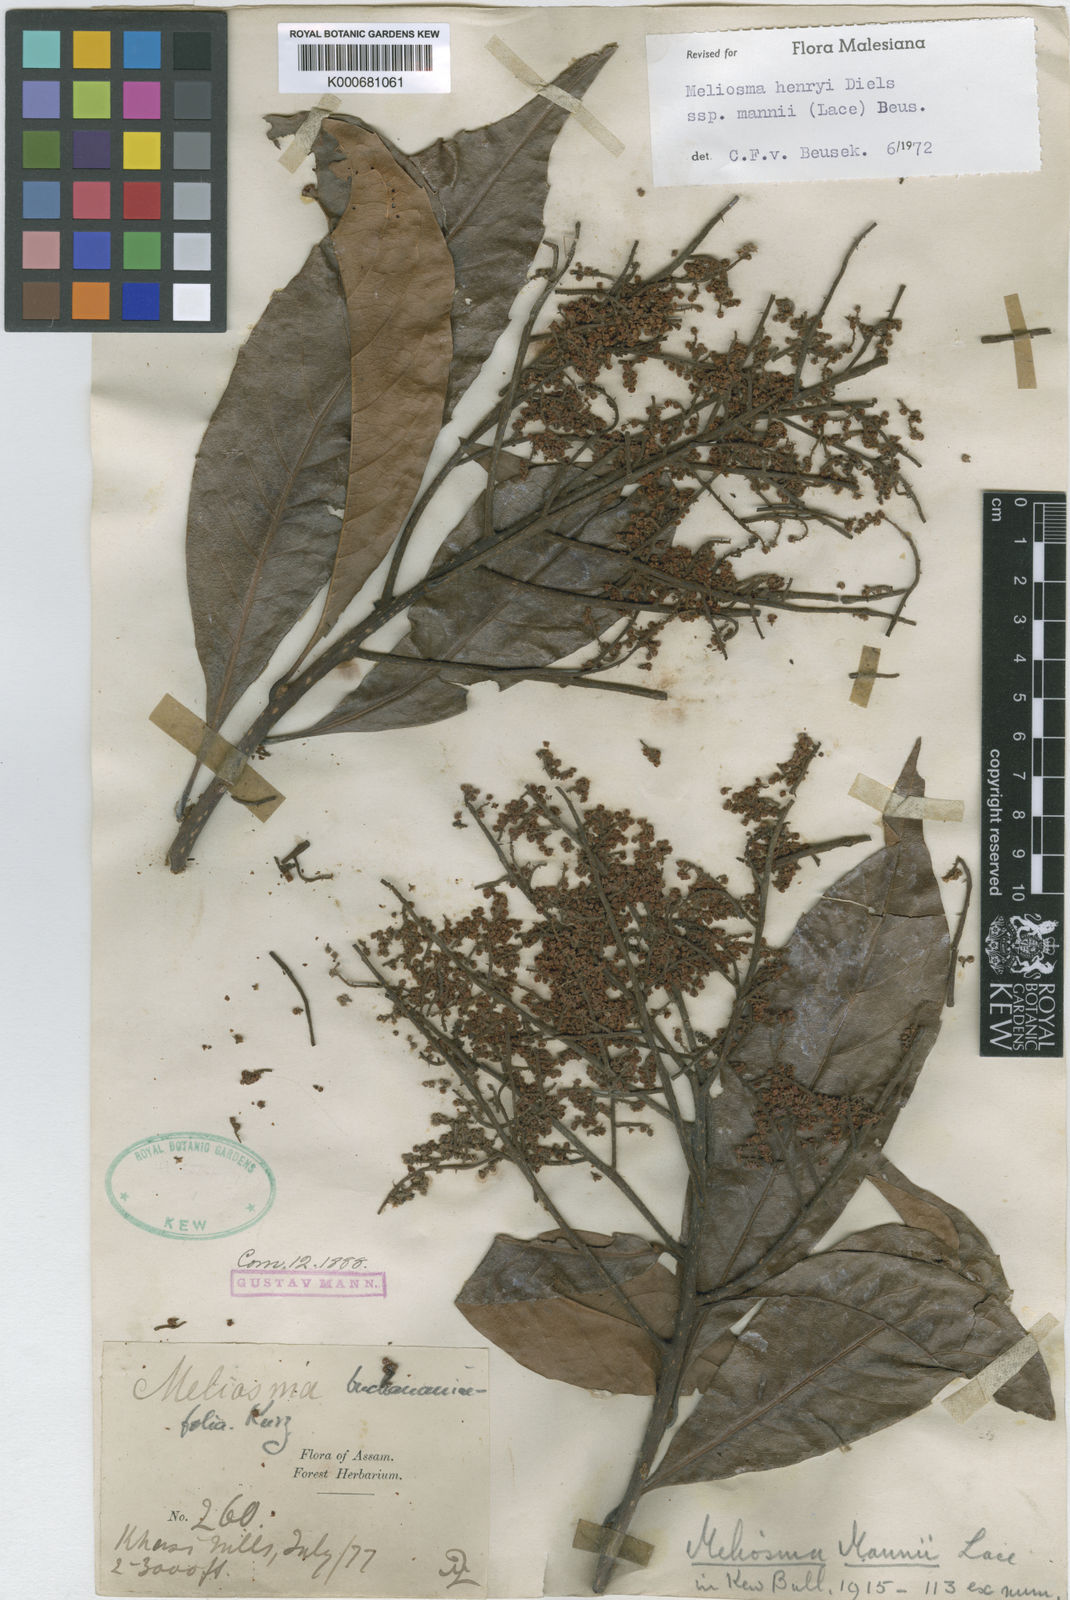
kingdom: Plantae
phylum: Tracheophyta
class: Magnoliopsida
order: Proteales
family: Sabiaceae
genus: Meliosma
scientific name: Meliosma thorelii
